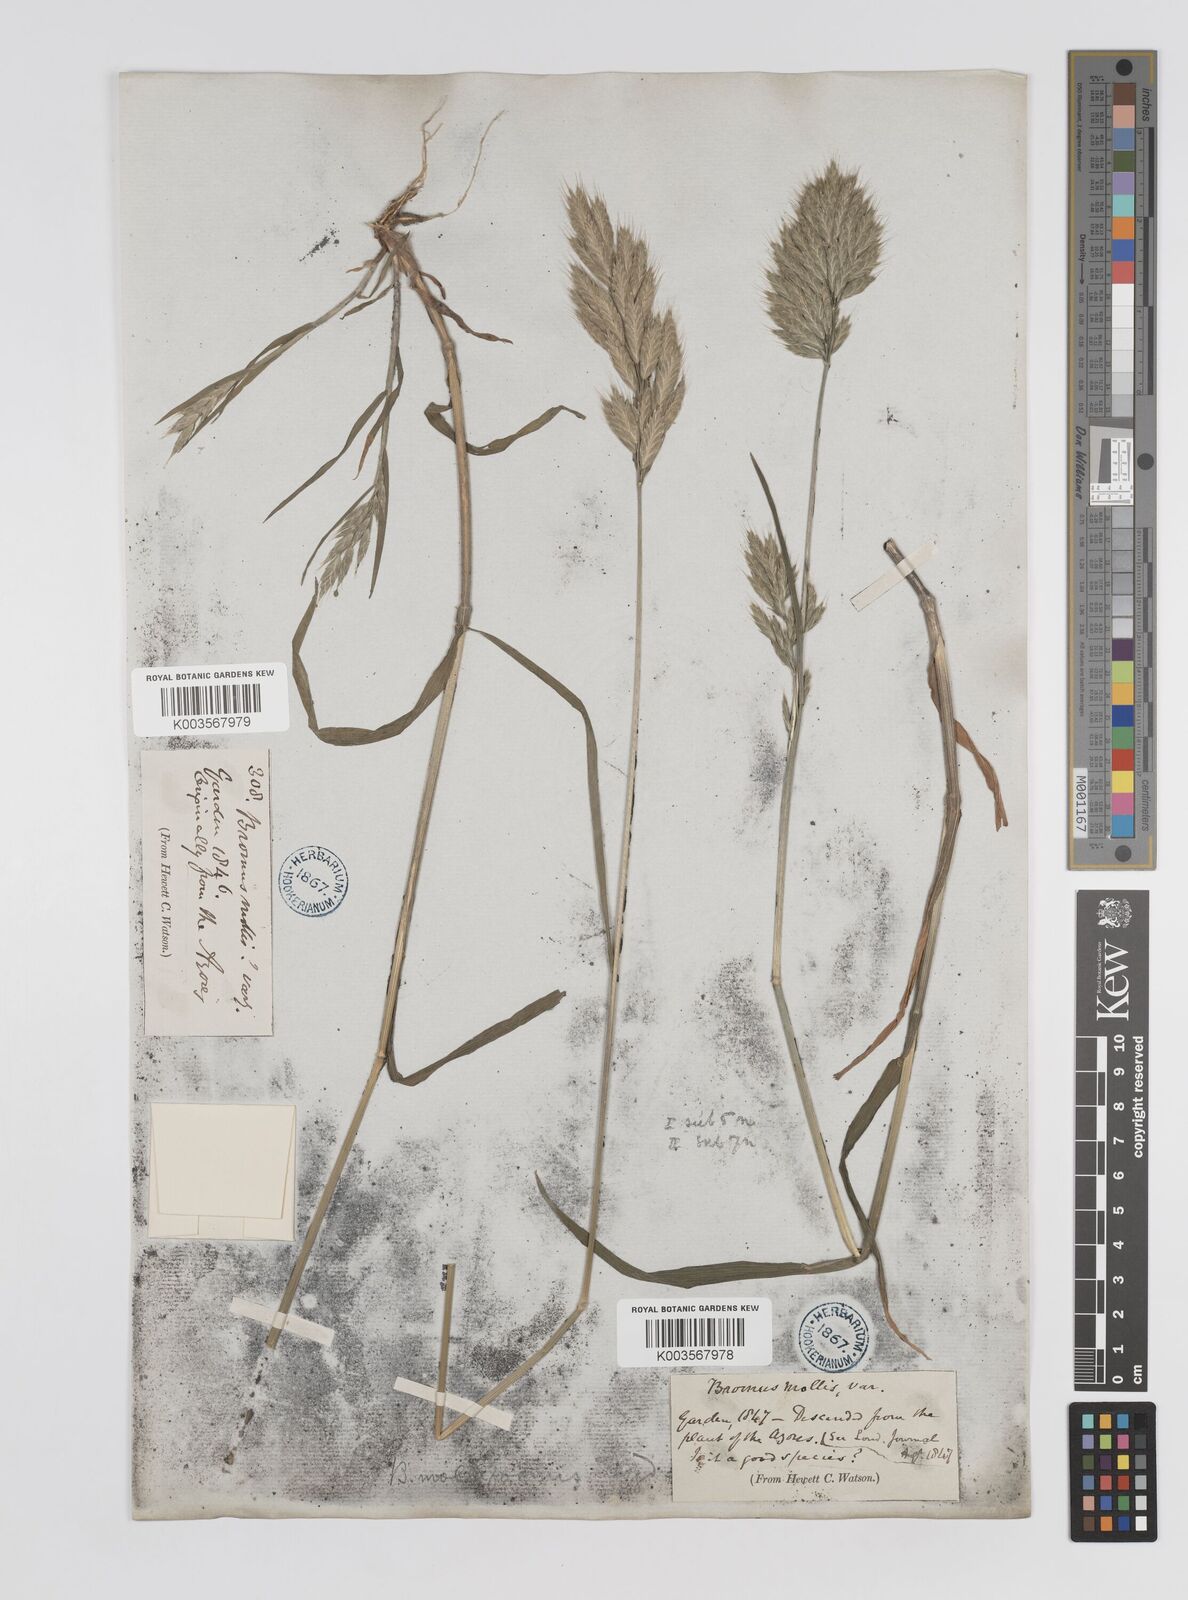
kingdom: Plantae
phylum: Tracheophyta
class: Liliopsida
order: Poales
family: Poaceae
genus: Bromus
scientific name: Bromus
